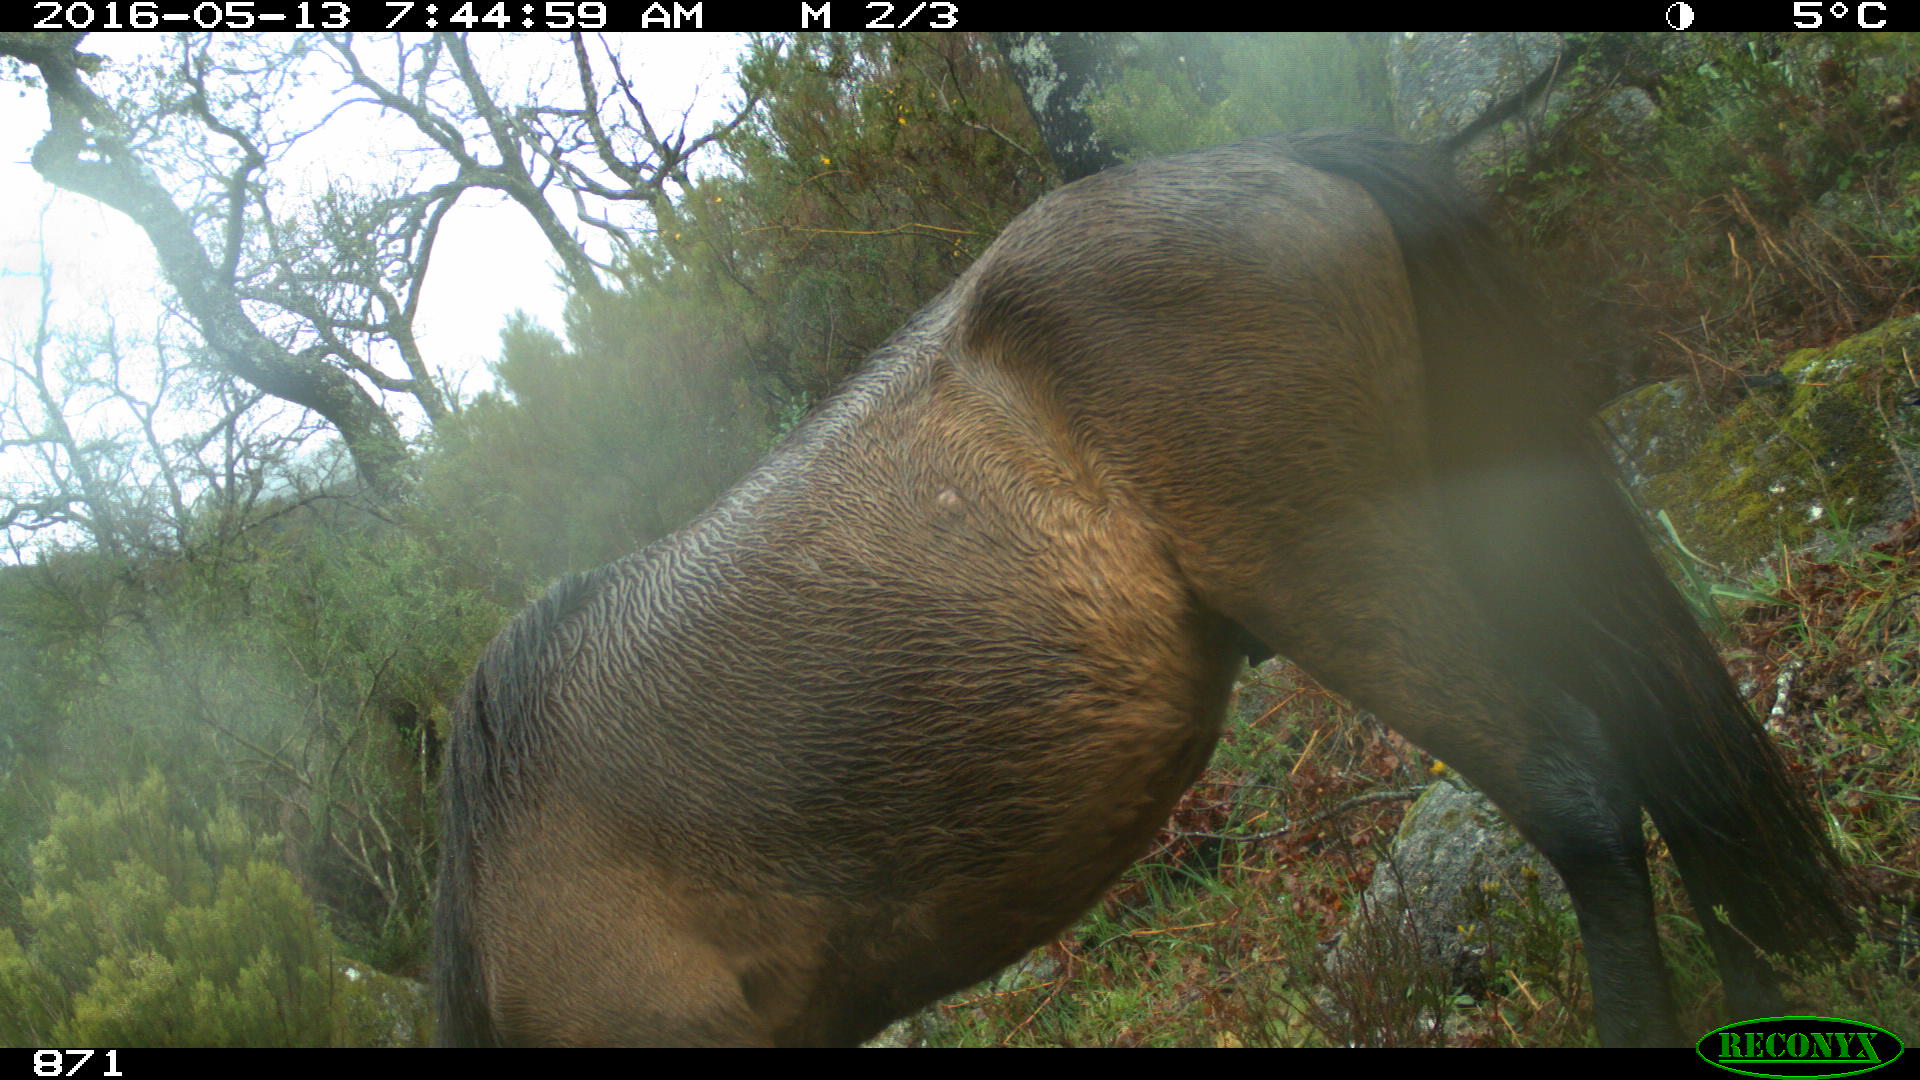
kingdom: Animalia
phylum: Chordata
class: Mammalia
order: Perissodactyla
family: Equidae
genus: Equus
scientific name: Equus caballus
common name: Horse
